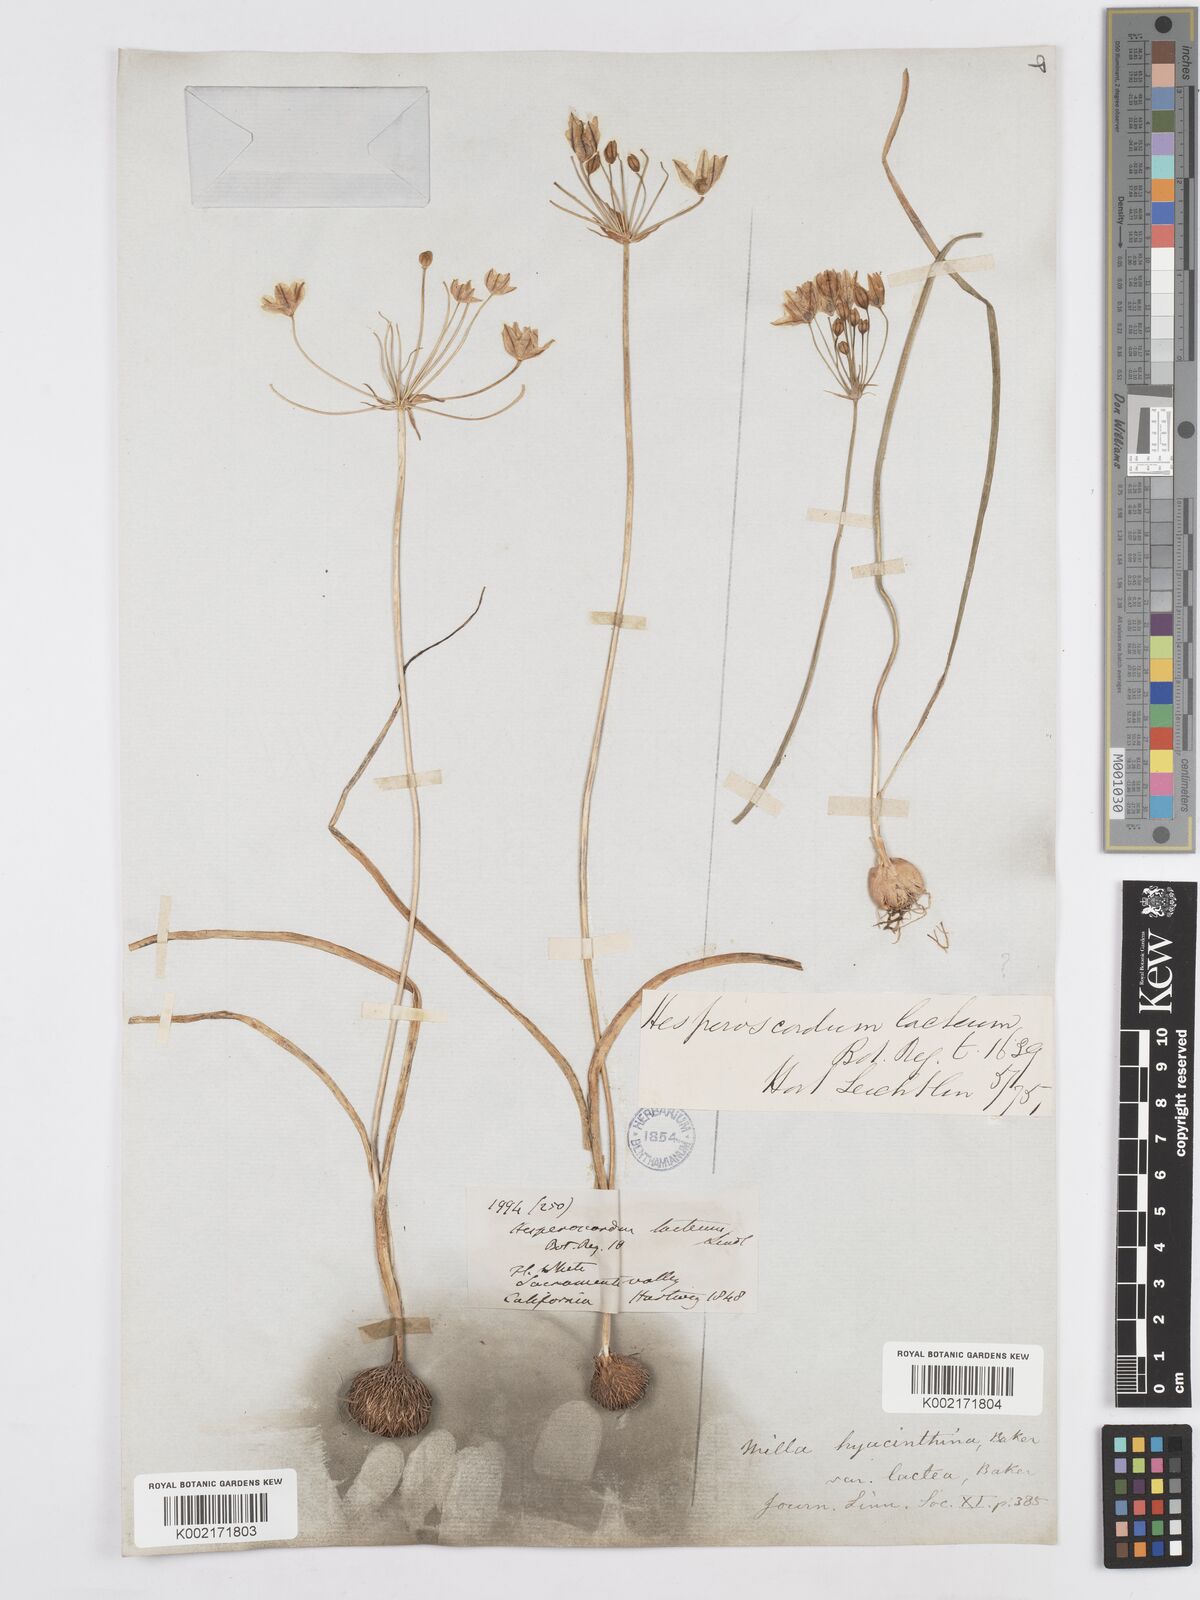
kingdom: Plantae
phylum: Tracheophyta
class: Liliopsida
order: Asparagales
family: Asparagaceae
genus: Triteleia
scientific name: Triteleia hyacinthina
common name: White brodiaea
